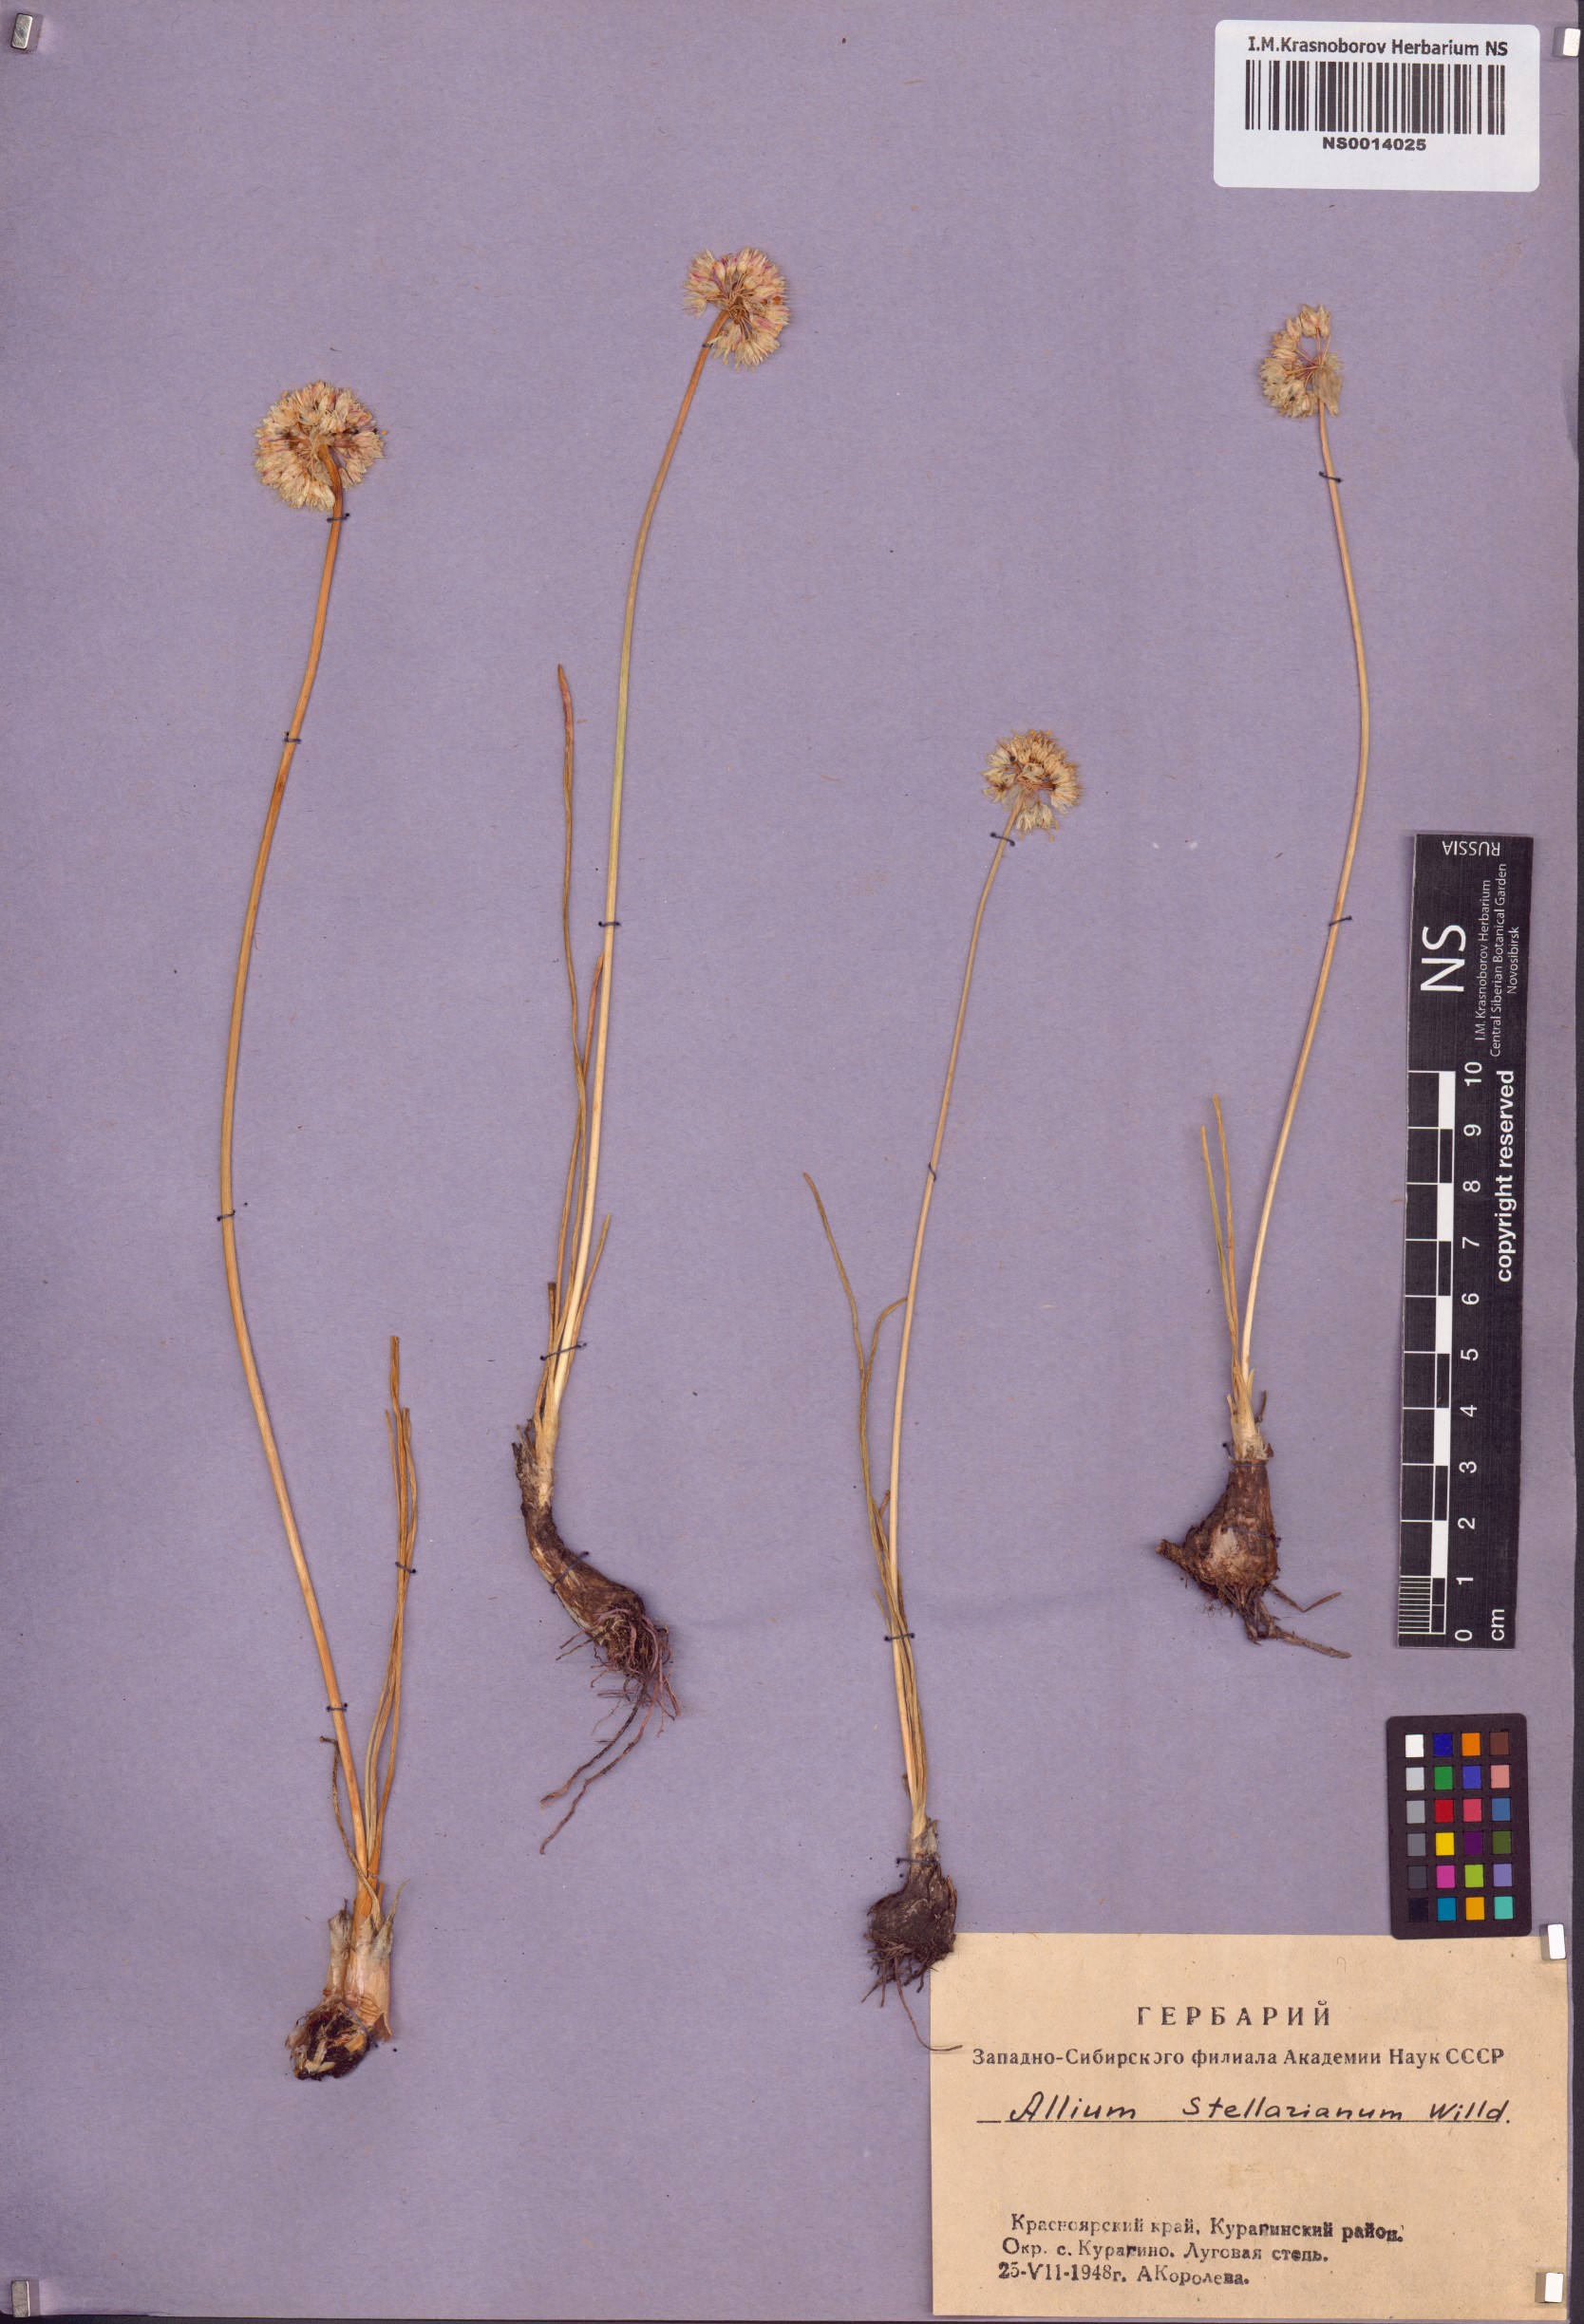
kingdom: Plantae
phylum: Tracheophyta
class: Liliopsida
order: Asparagales
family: Amaryllidaceae
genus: Allium
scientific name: Allium stellerianum
